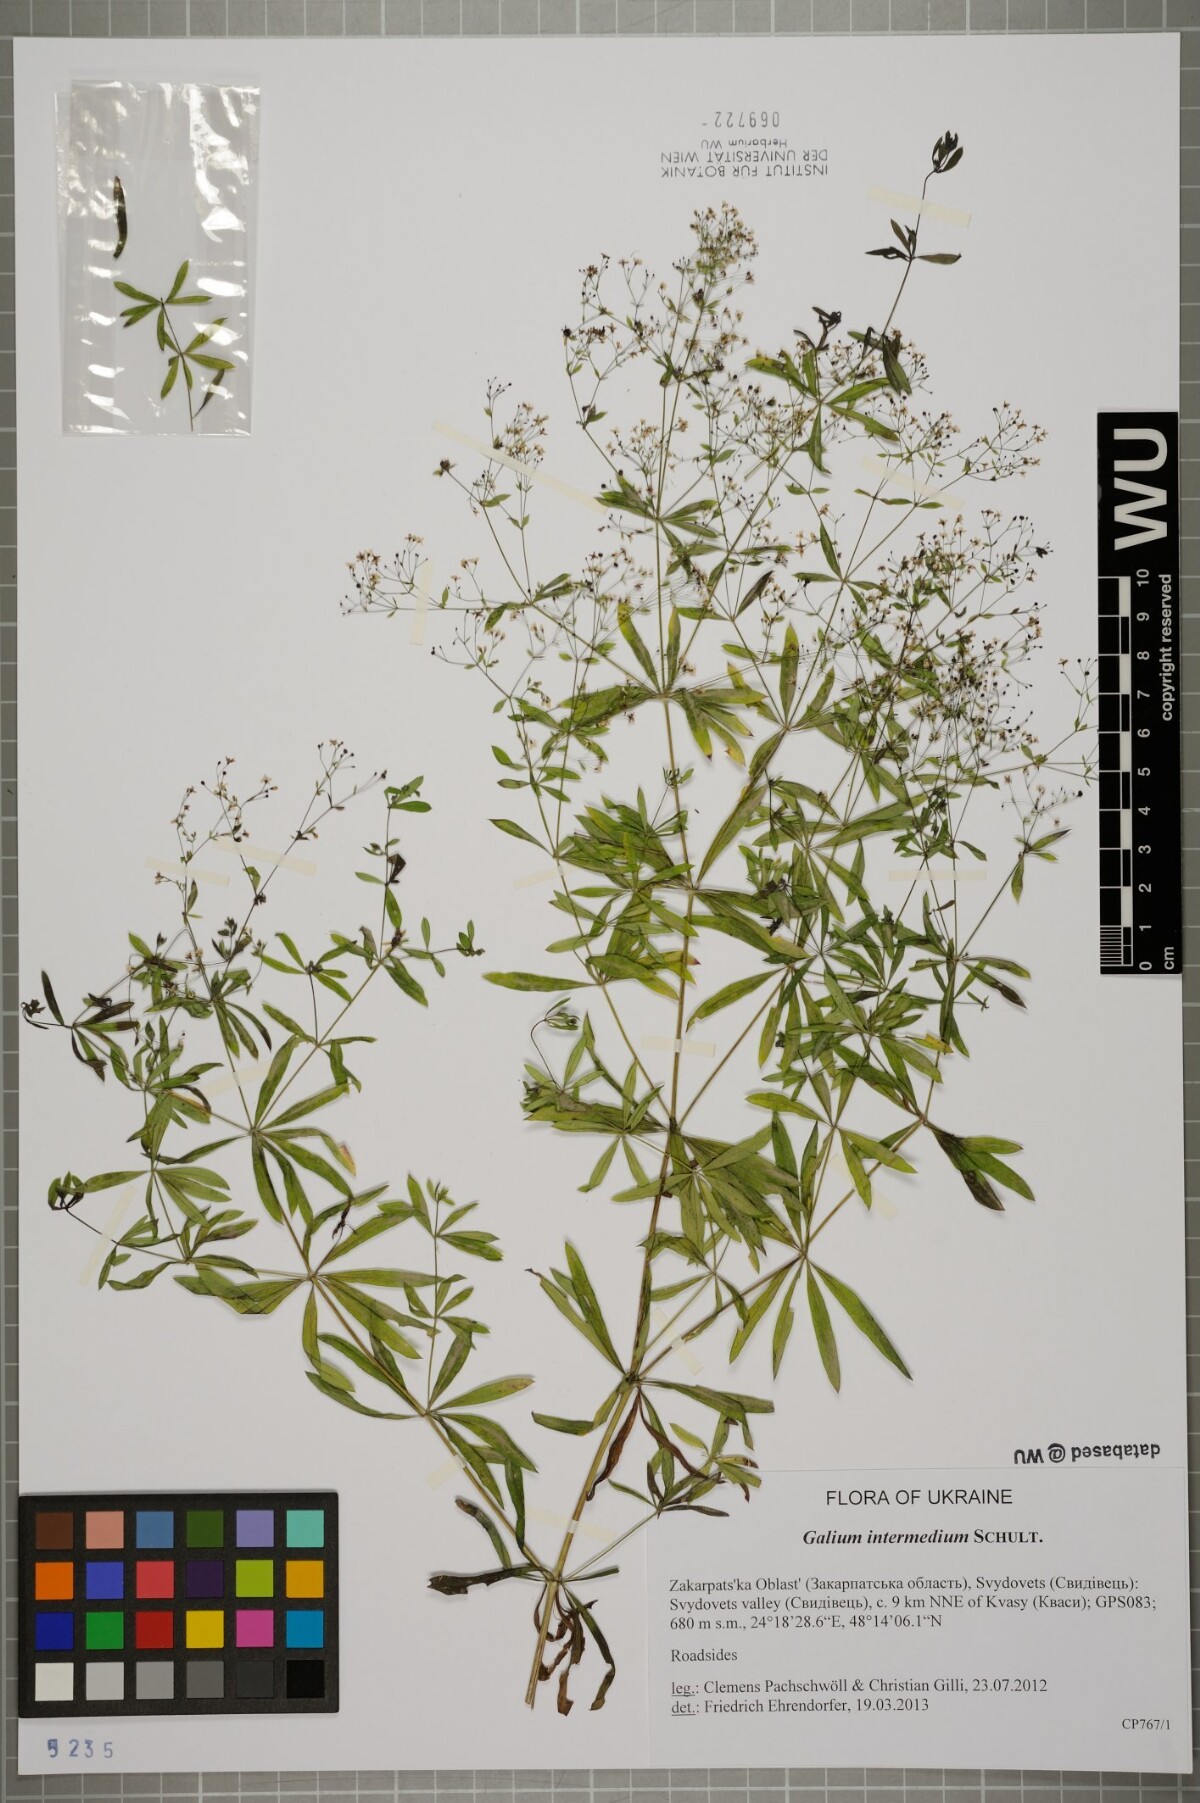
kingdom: Plantae
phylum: Tracheophyta
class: Magnoliopsida
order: Gentianales
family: Rubiaceae
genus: Galium
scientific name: Galium intermedium
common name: Bedstraw
